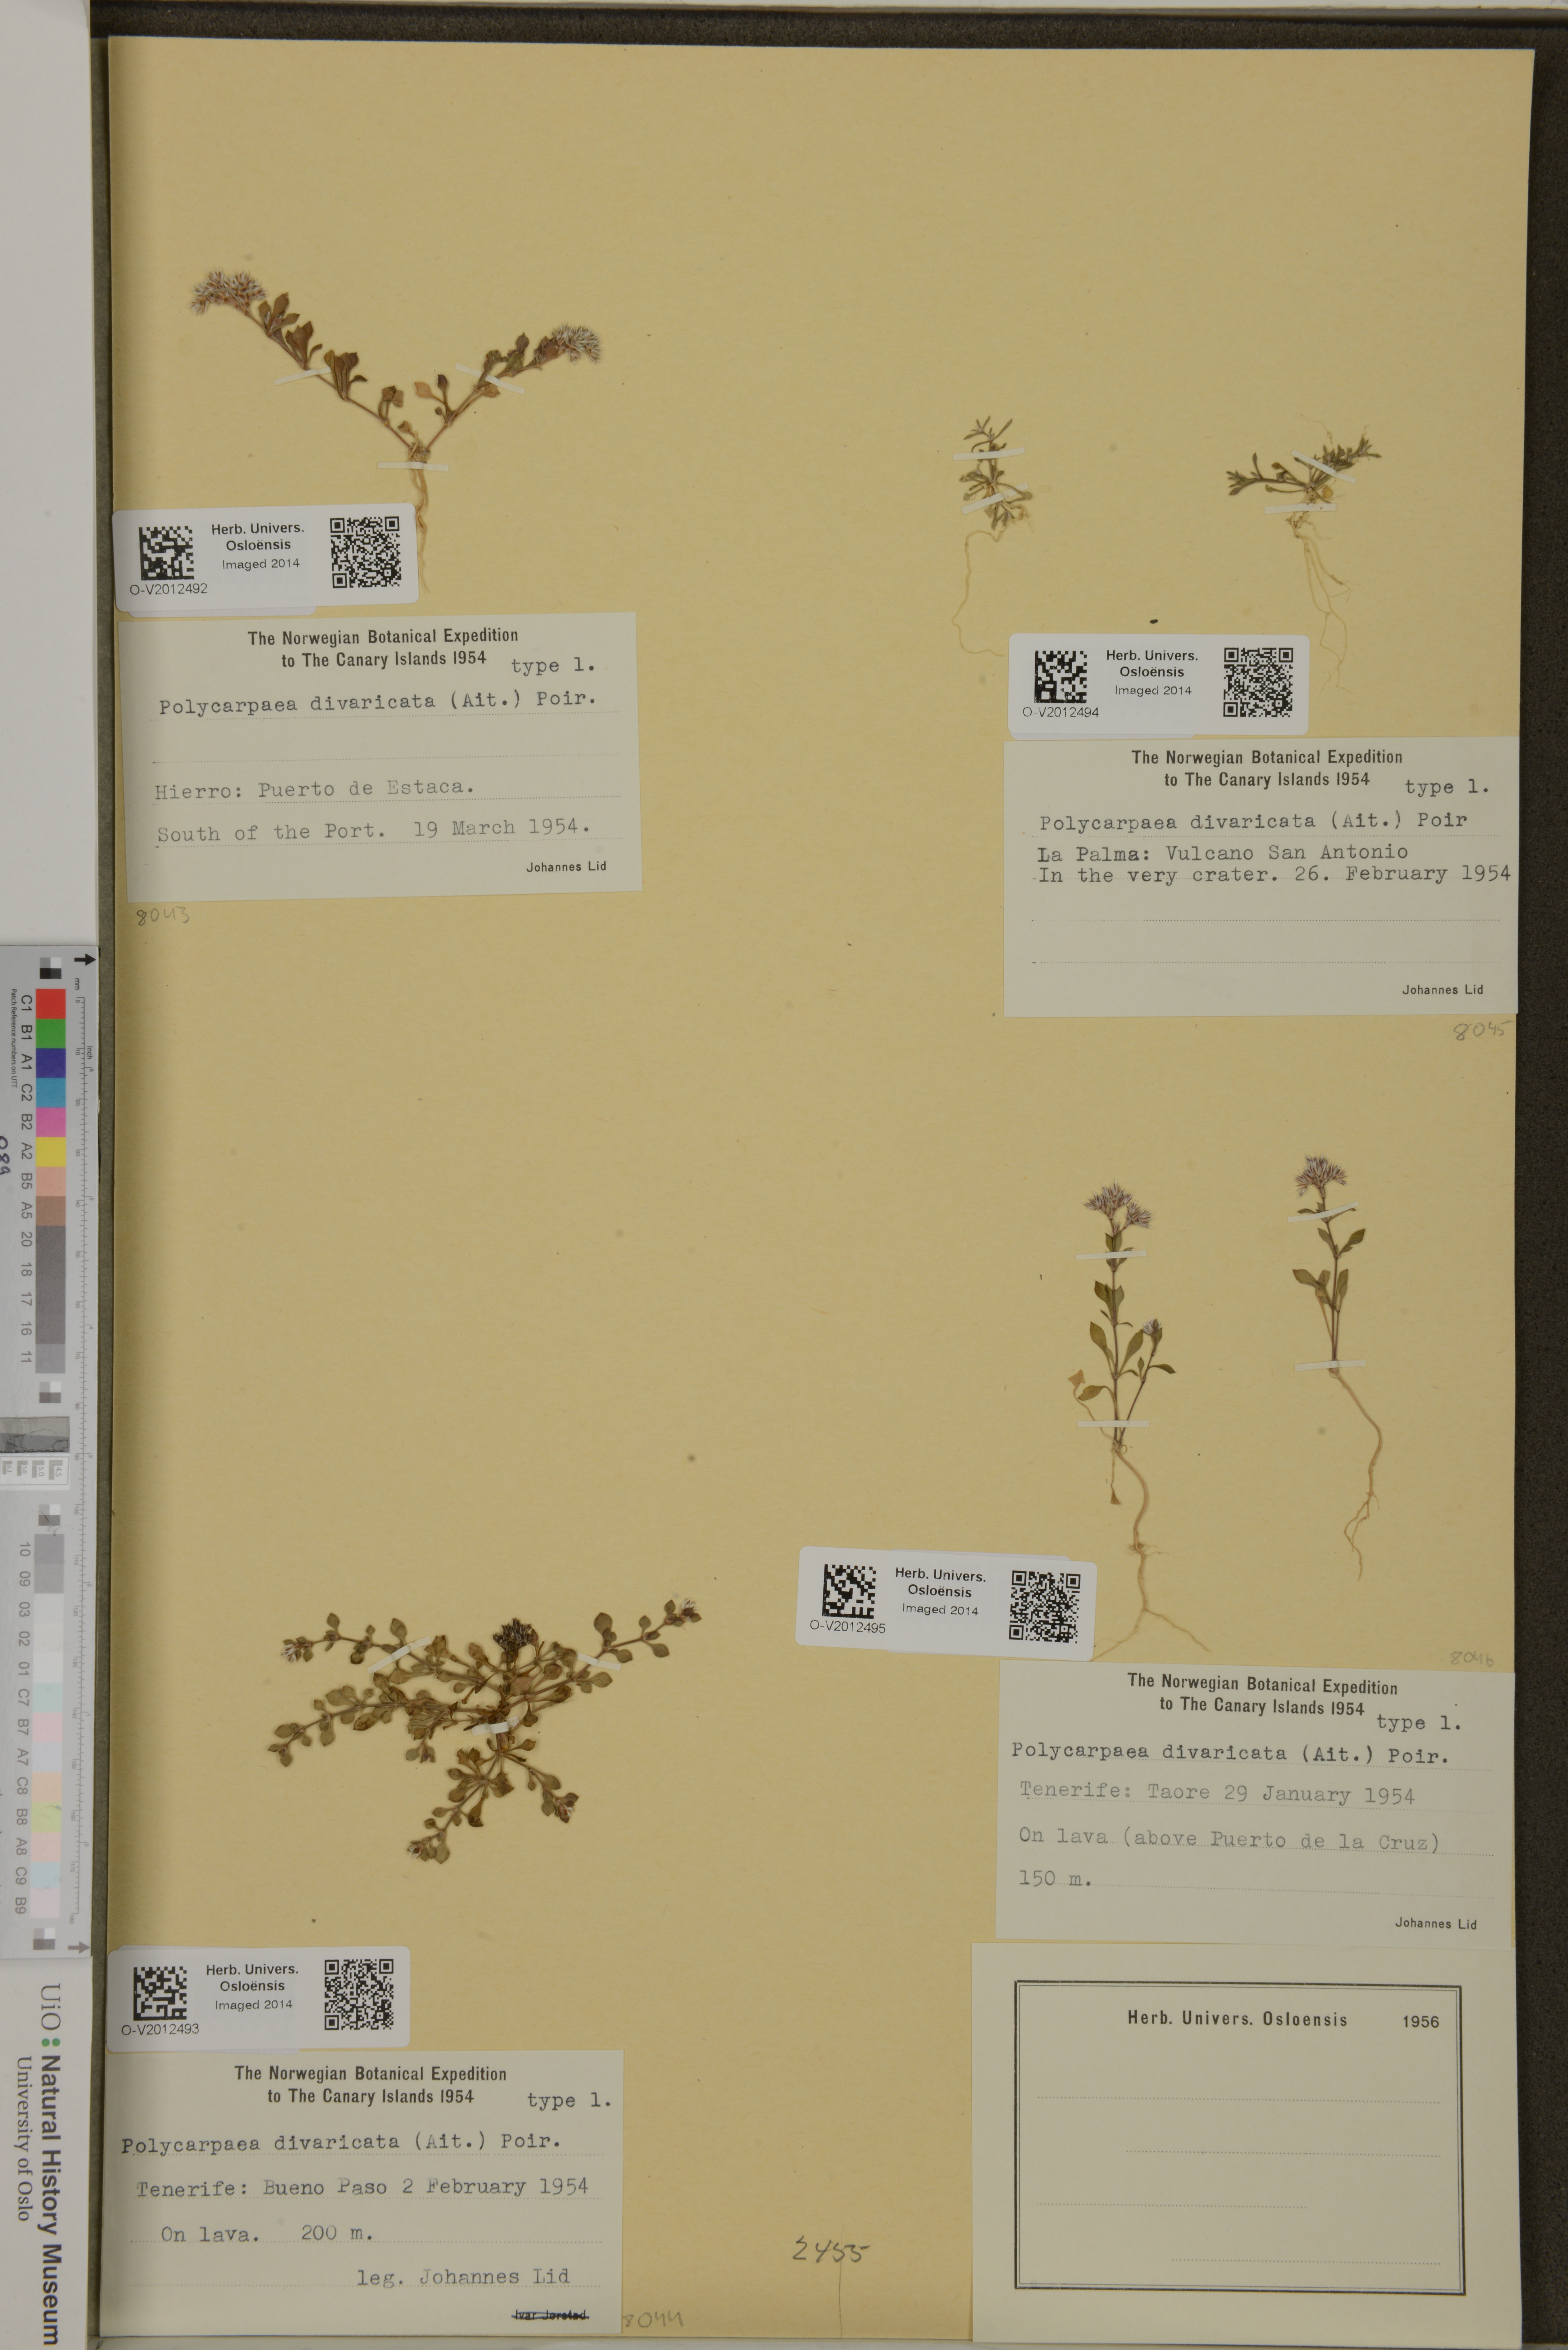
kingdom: Plantae
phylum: Tracheophyta
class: Magnoliopsida
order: Caryophyllales
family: Caryophyllaceae
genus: Polycarpaea
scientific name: Polycarpaea divaricata
